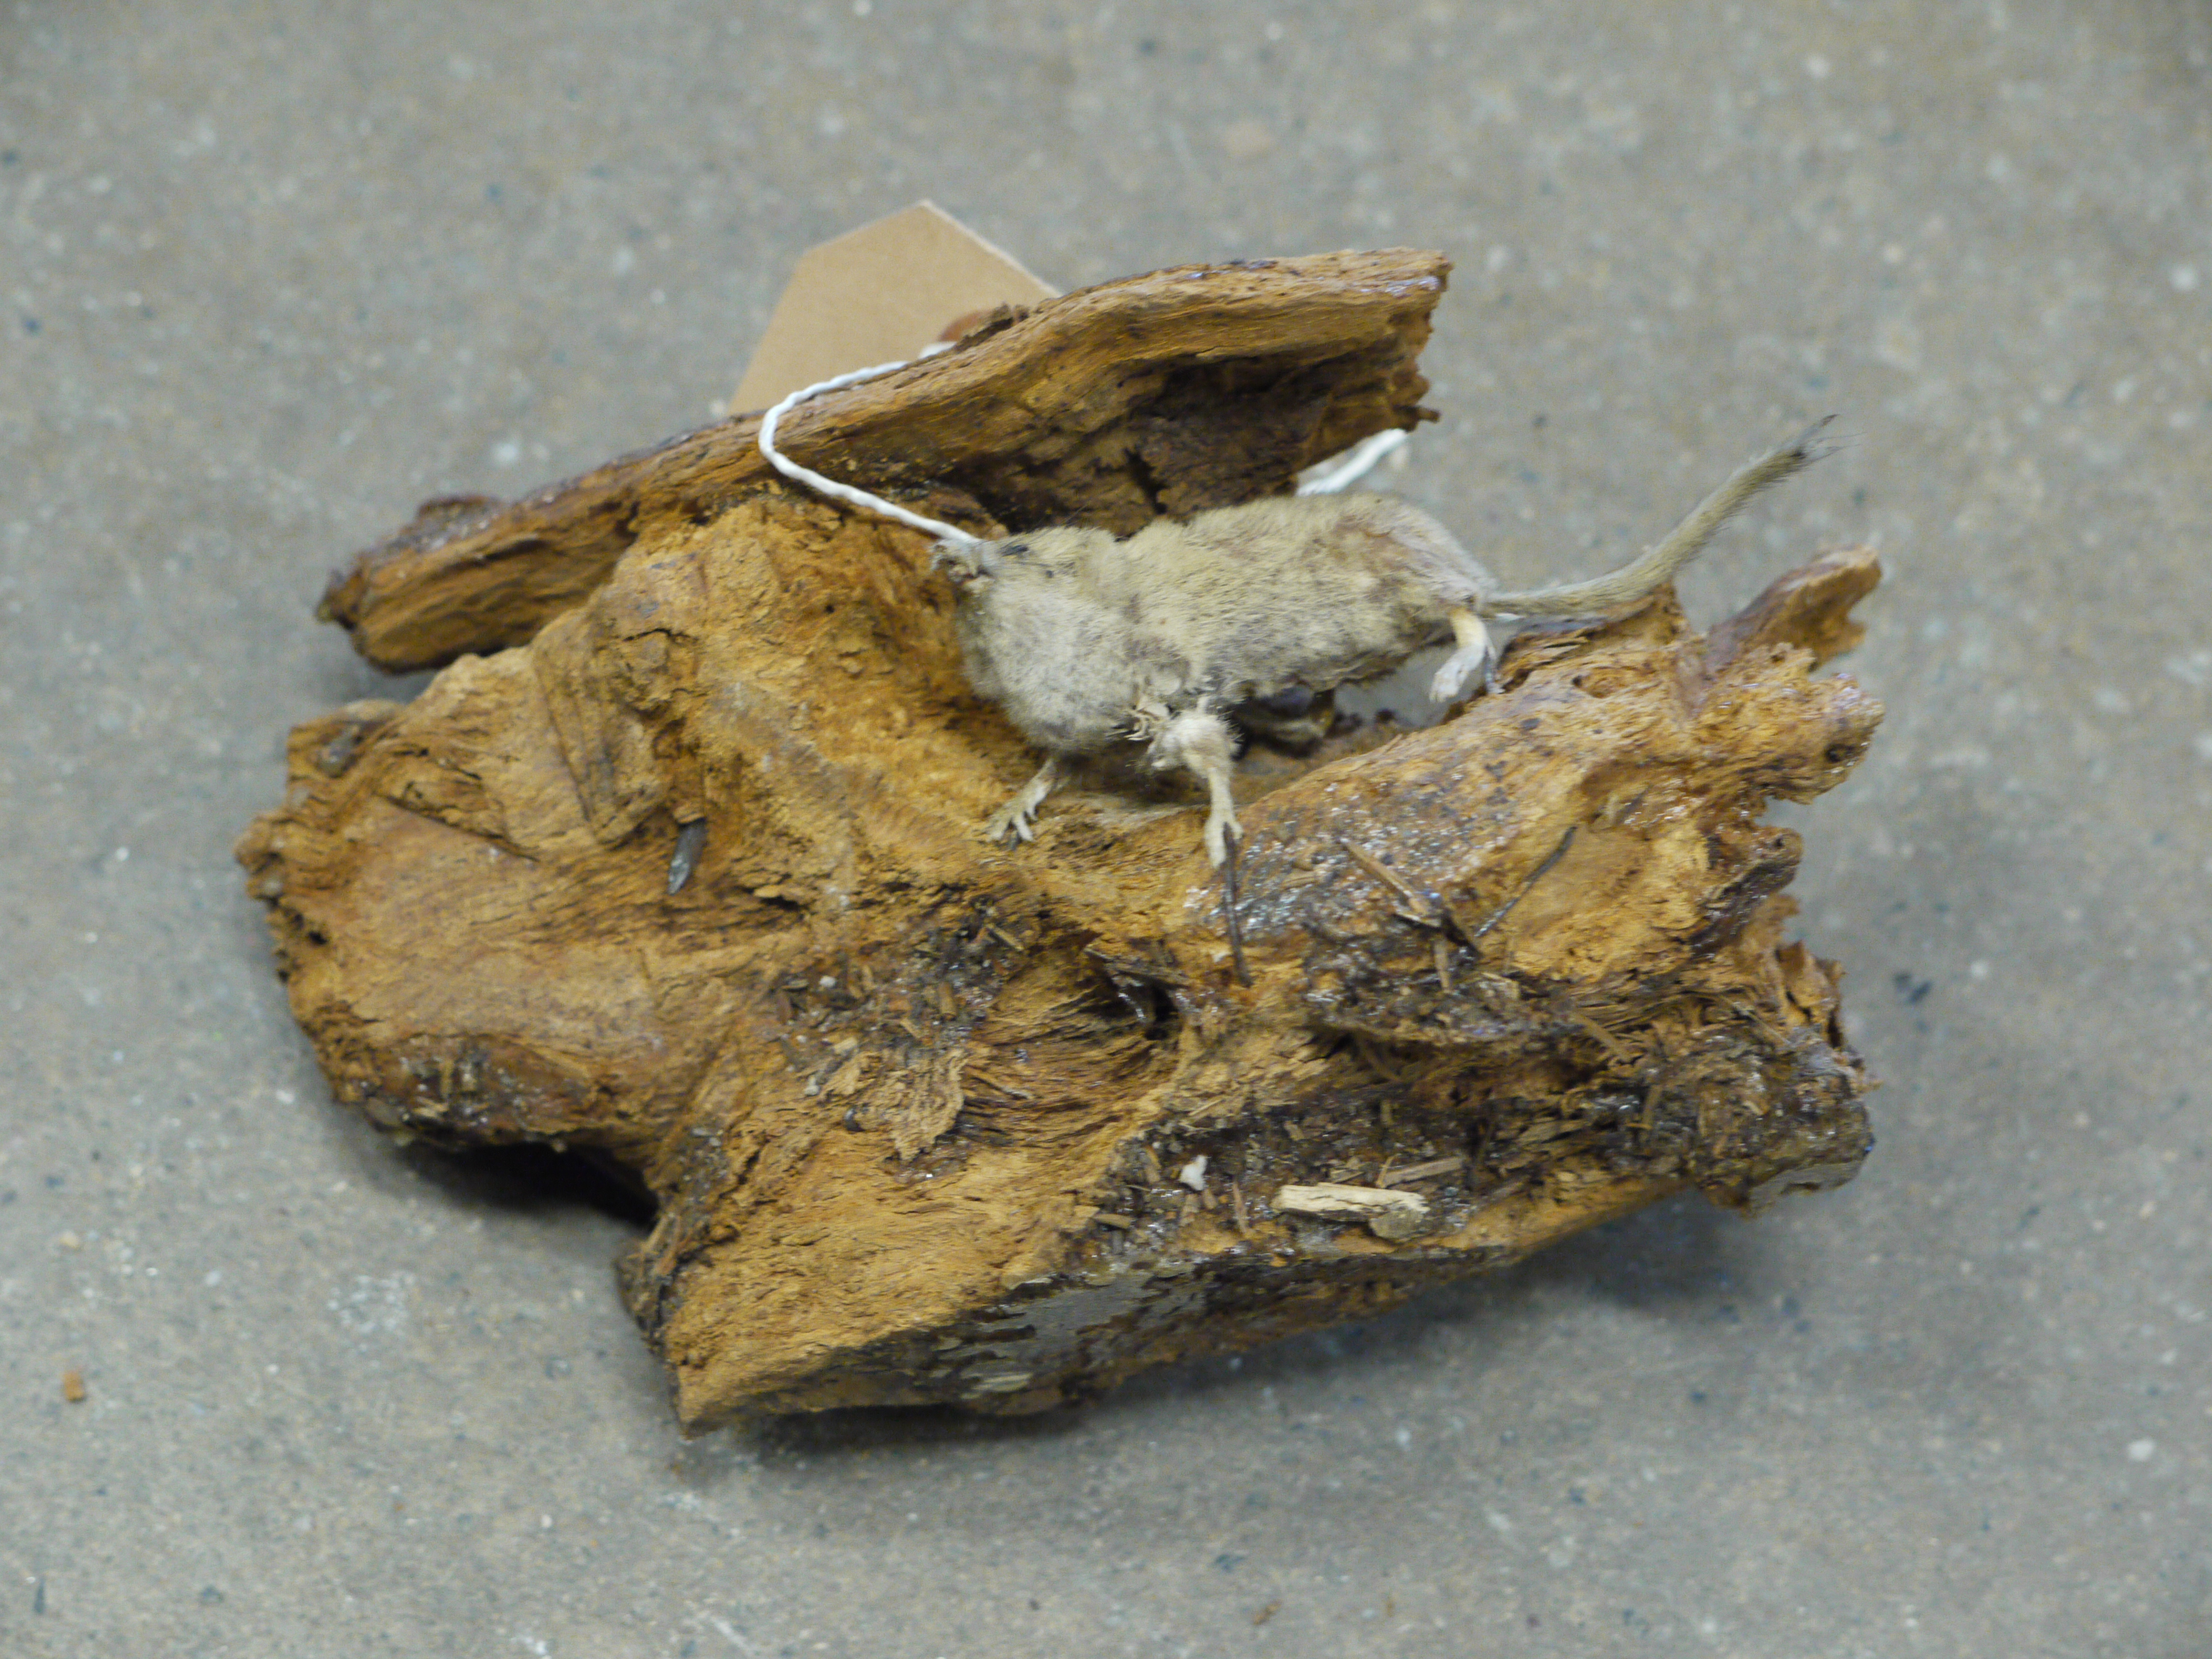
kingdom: Animalia
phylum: Chordata
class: Mammalia
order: Soricomorpha
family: Soricidae
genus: Sorex
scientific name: Sorex minutus
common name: Eurasian pygmy shrew
